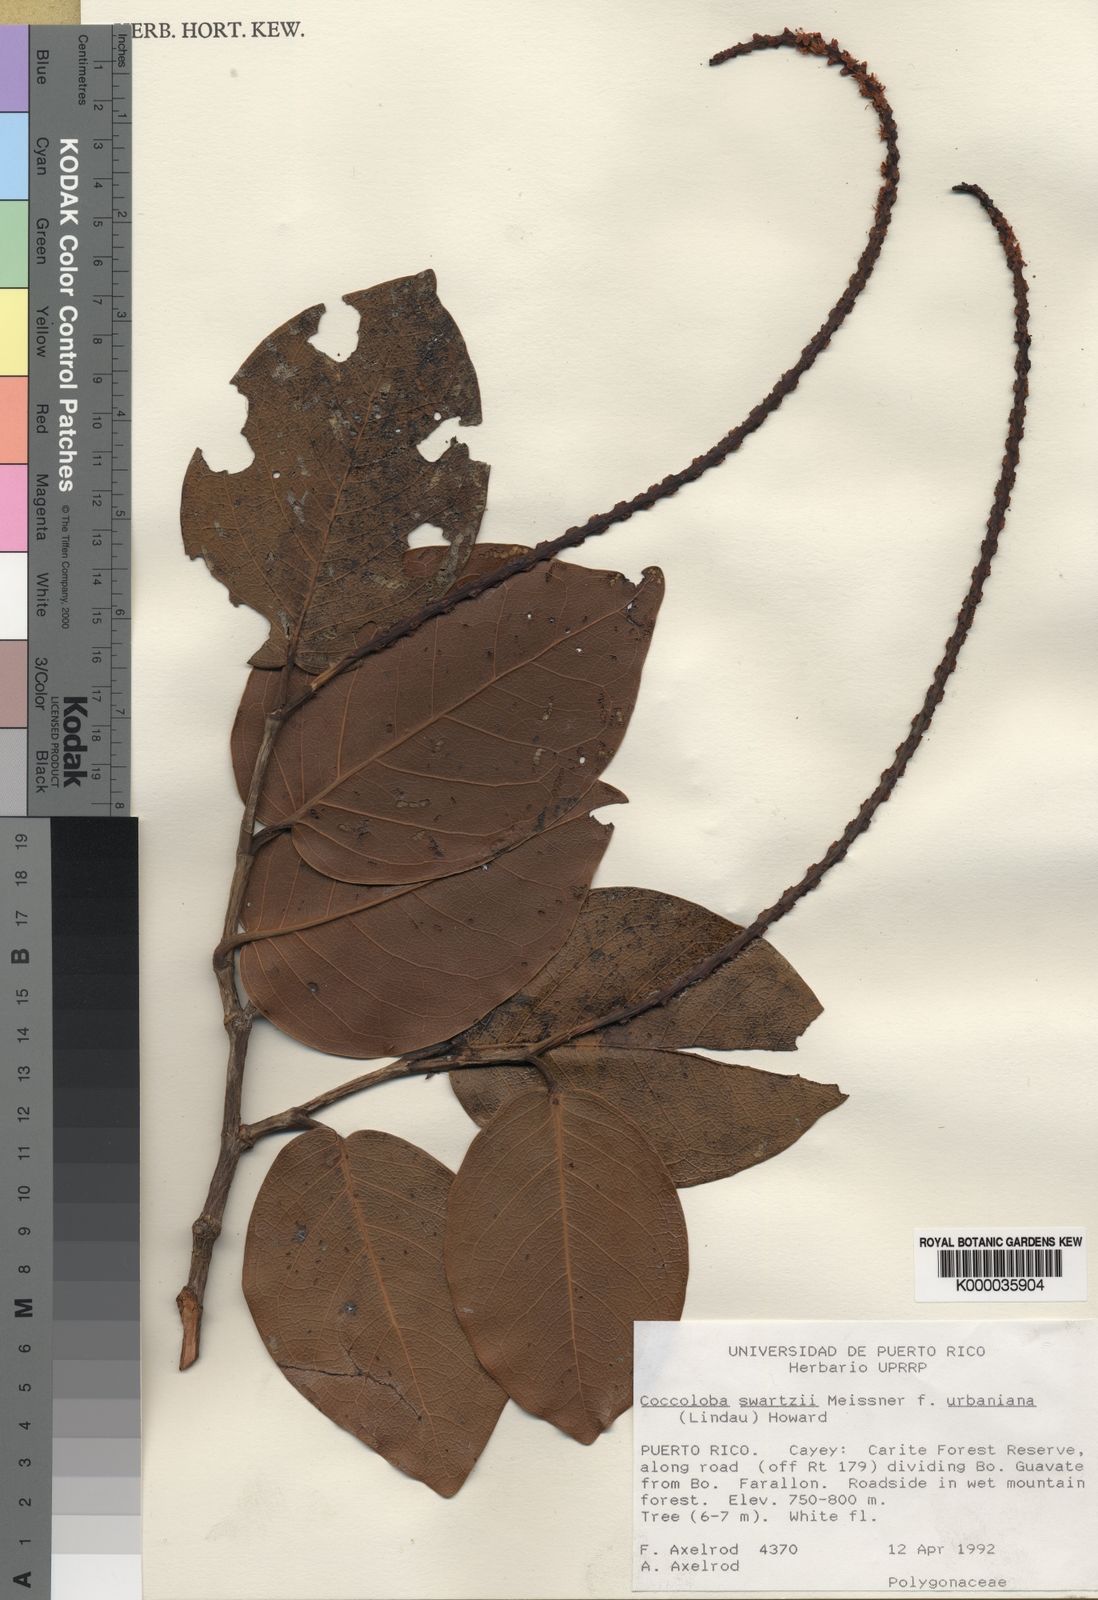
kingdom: Plantae
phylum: Tracheophyta
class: Magnoliopsida
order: Caryophyllales
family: Polygonaceae
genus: Coccoloba
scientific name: Coccoloba swartzii
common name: Red wood
